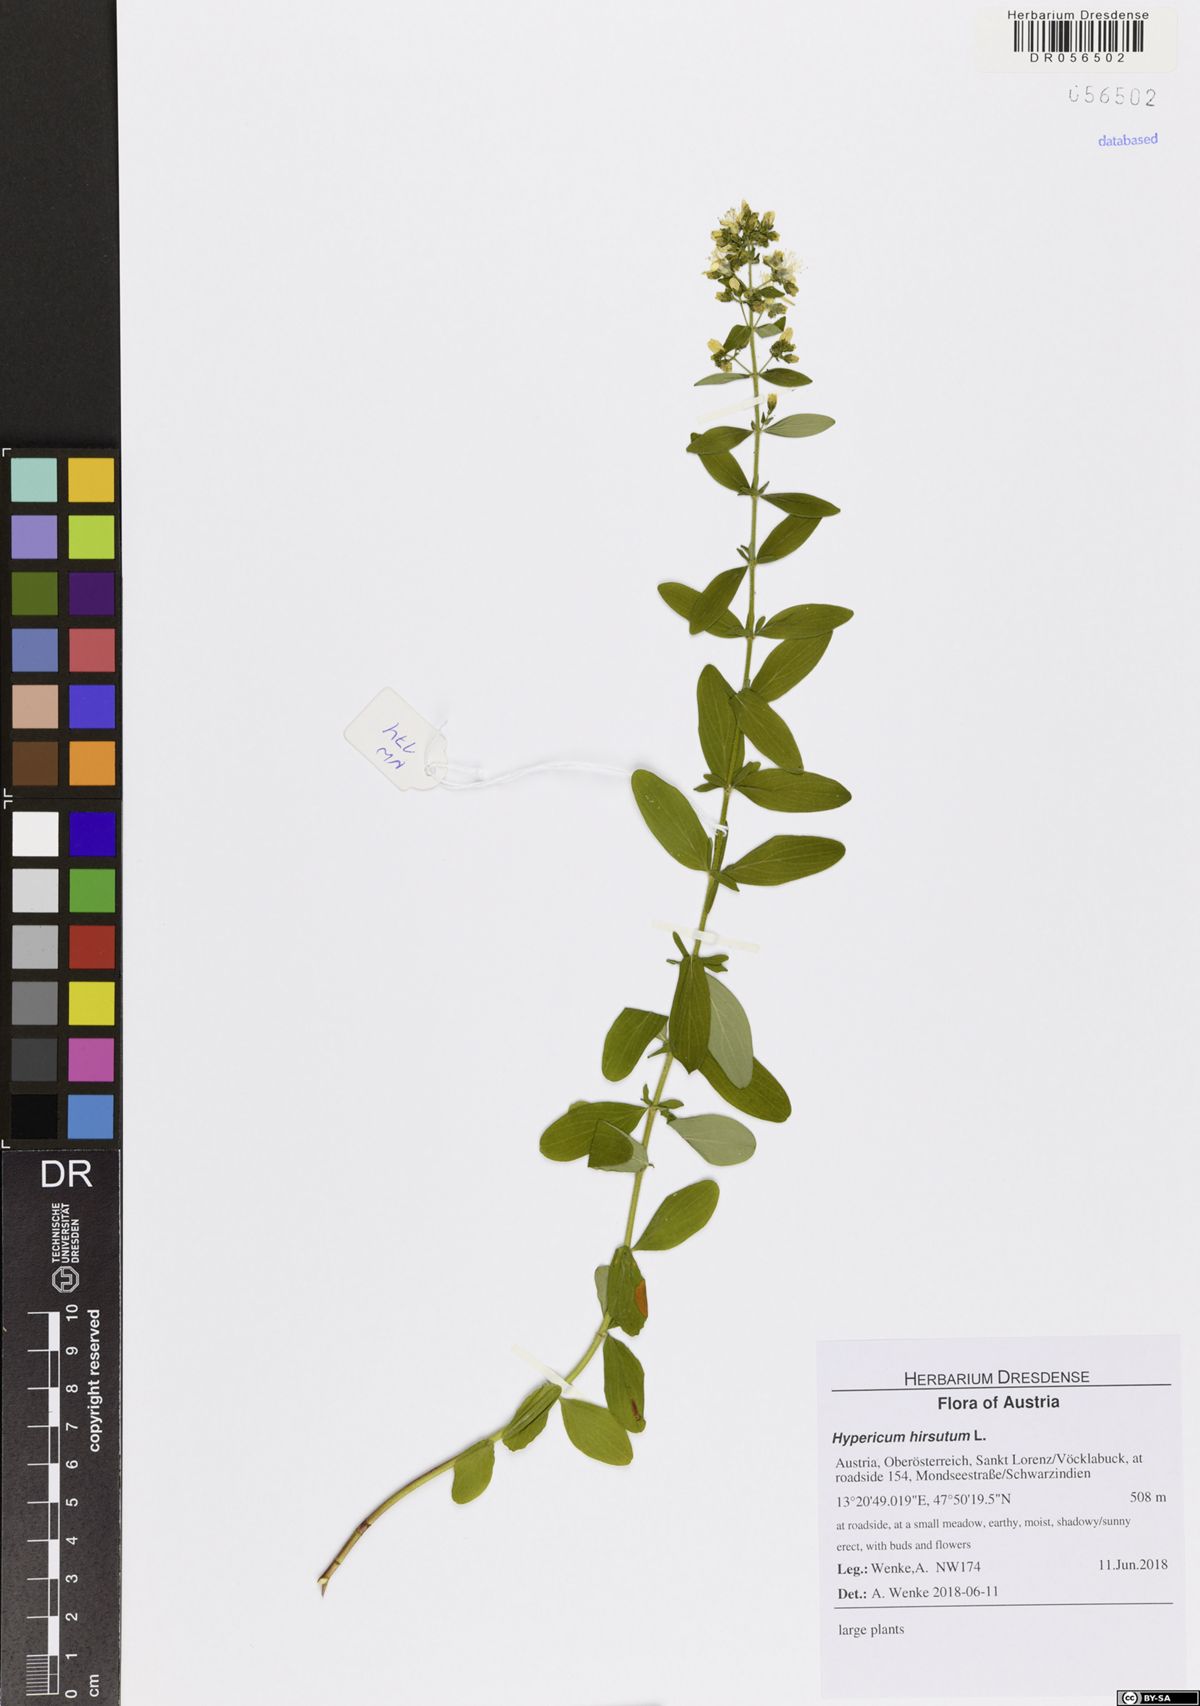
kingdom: Plantae
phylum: Tracheophyta
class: Magnoliopsida
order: Malpighiales
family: Hypericaceae
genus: Hypericum
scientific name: Hypericum hirsutum
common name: Hairy st. john's-wort
